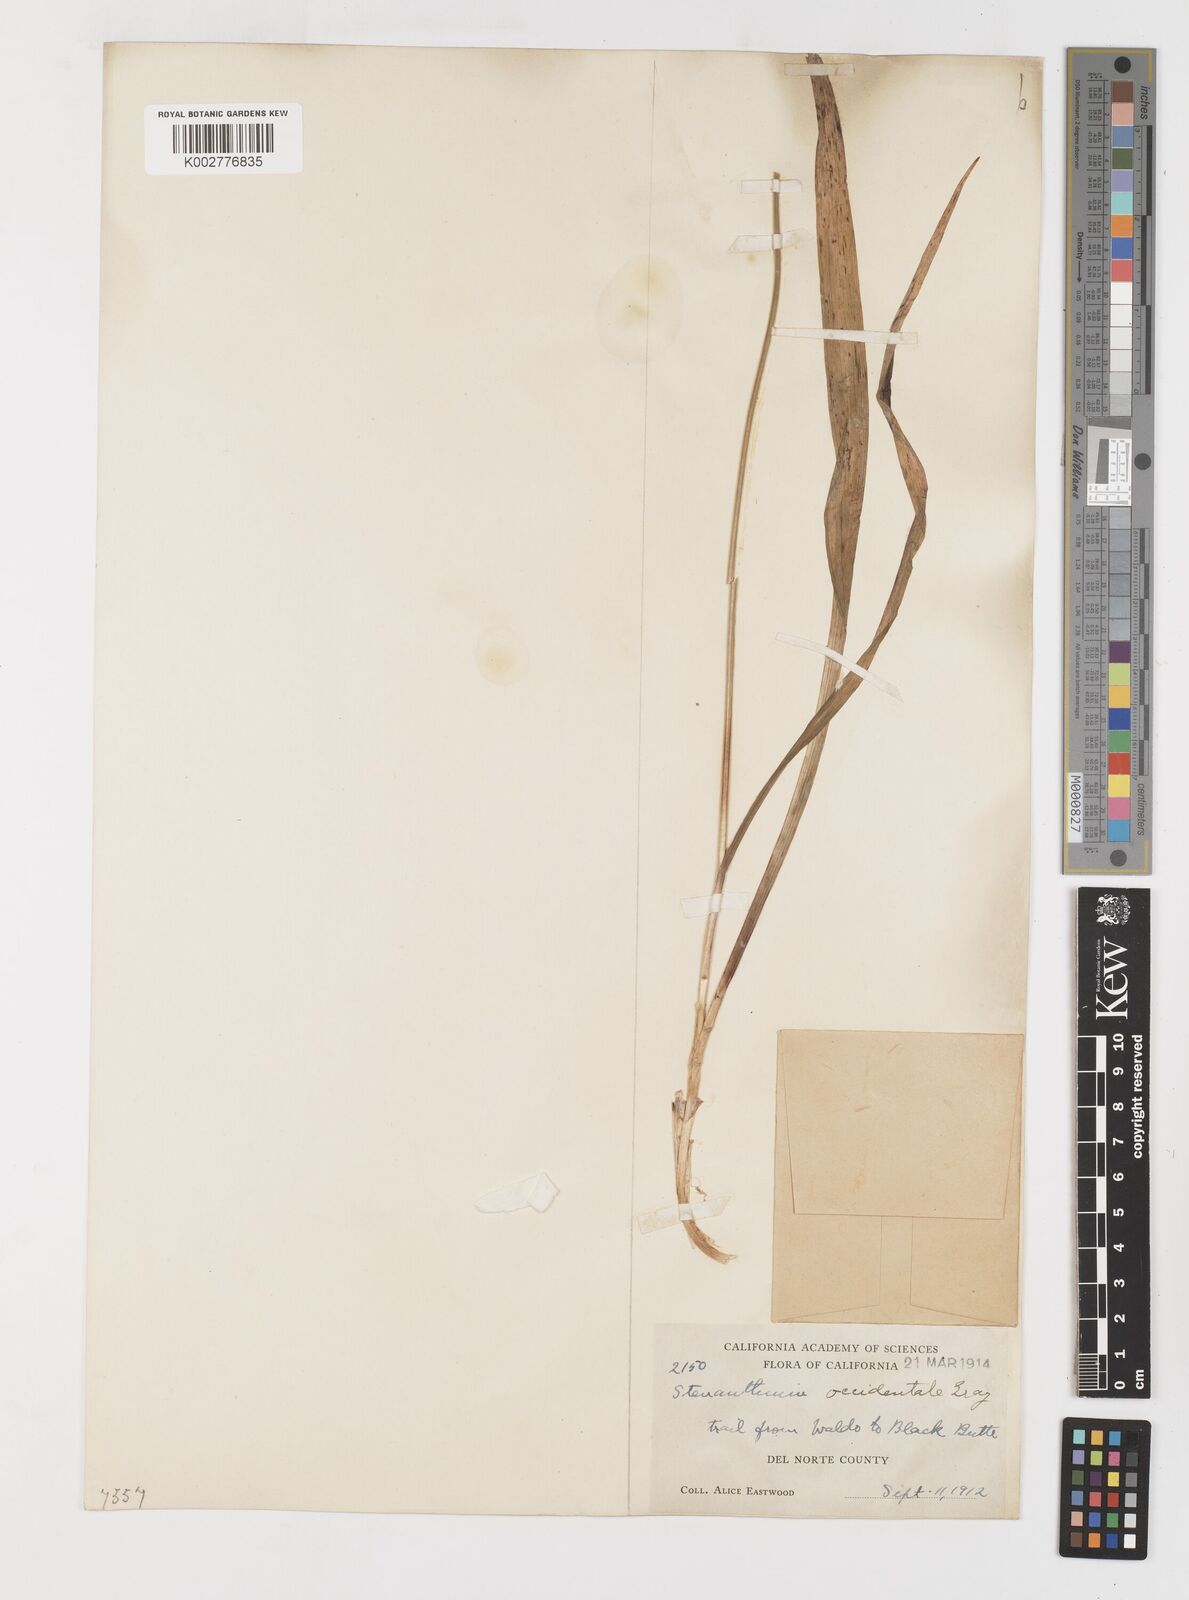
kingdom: Plantae
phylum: Tracheophyta
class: Liliopsida
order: Liliales
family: Melanthiaceae
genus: Anticlea
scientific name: Anticlea occidentalis
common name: Bronze-bells
